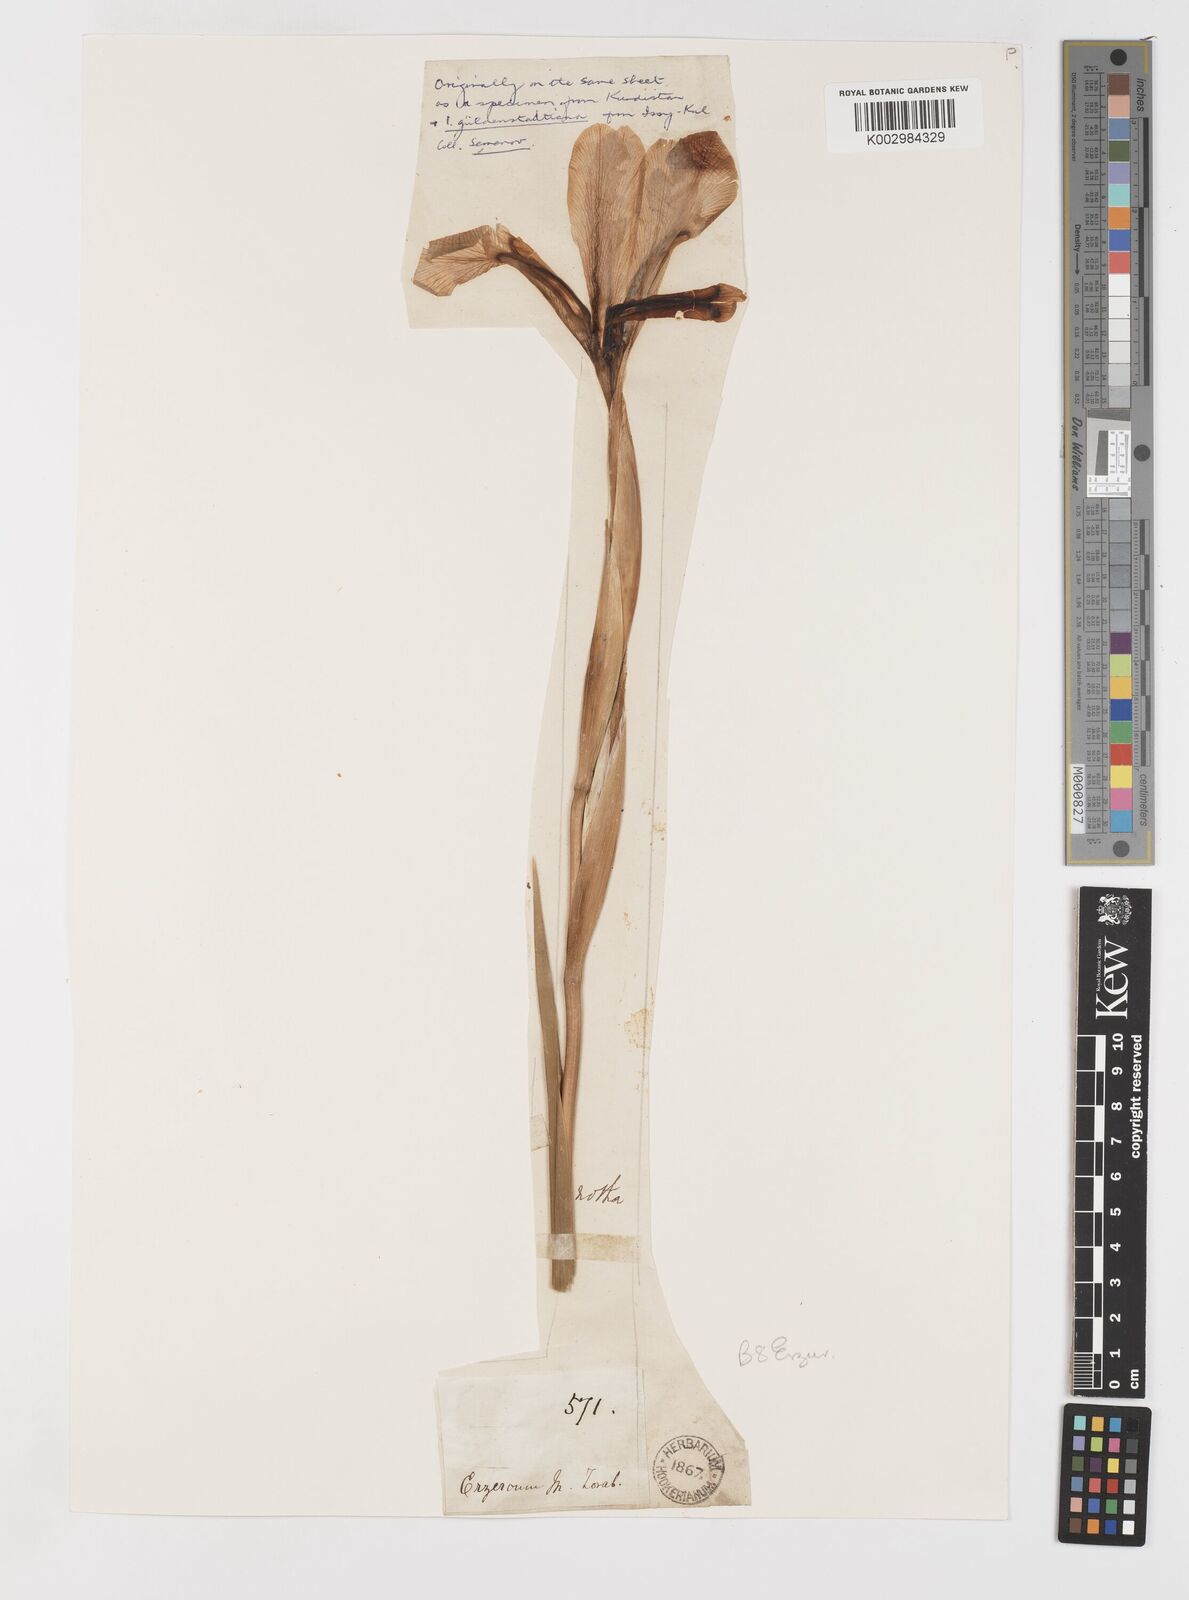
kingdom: Plantae
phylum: Tracheophyta
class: Liliopsida
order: Asparagales
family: Iridaceae
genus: Iris
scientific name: Iris spuria
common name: Blue iris
